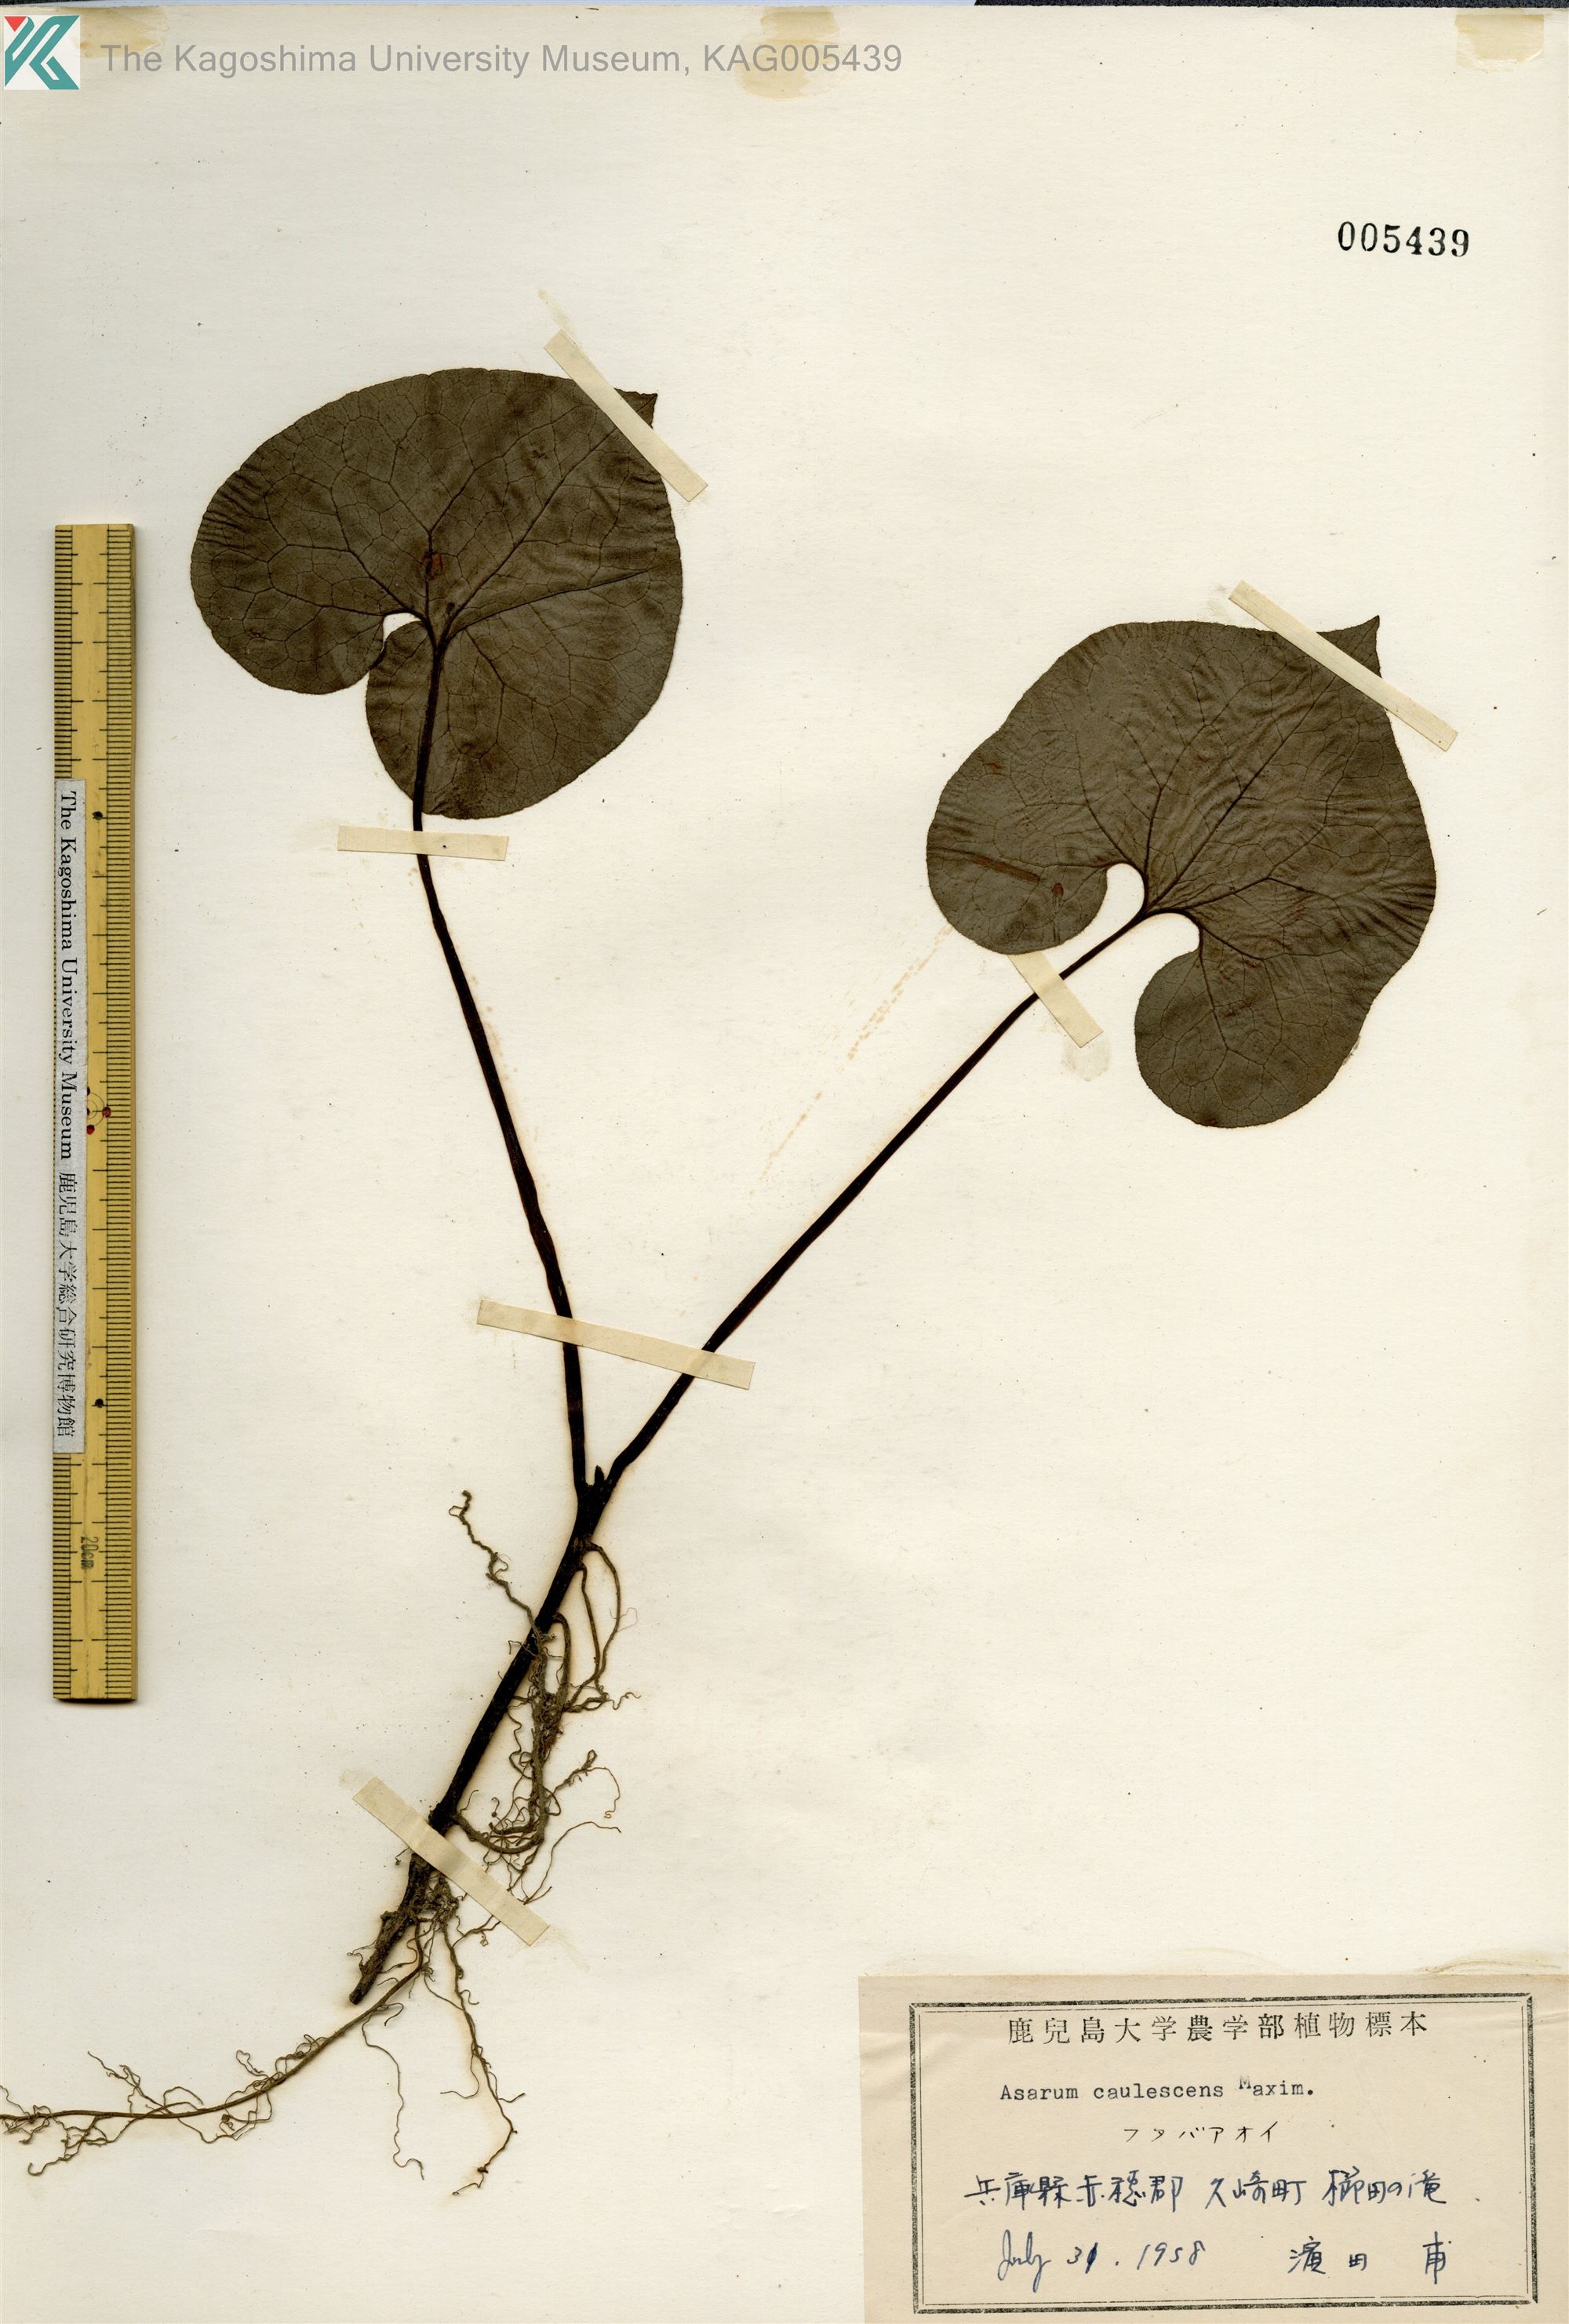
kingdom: Plantae
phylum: Tracheophyta
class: Magnoliopsida
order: Piperales
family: Aristolochiaceae
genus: Asarum
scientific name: Asarum caulescens
